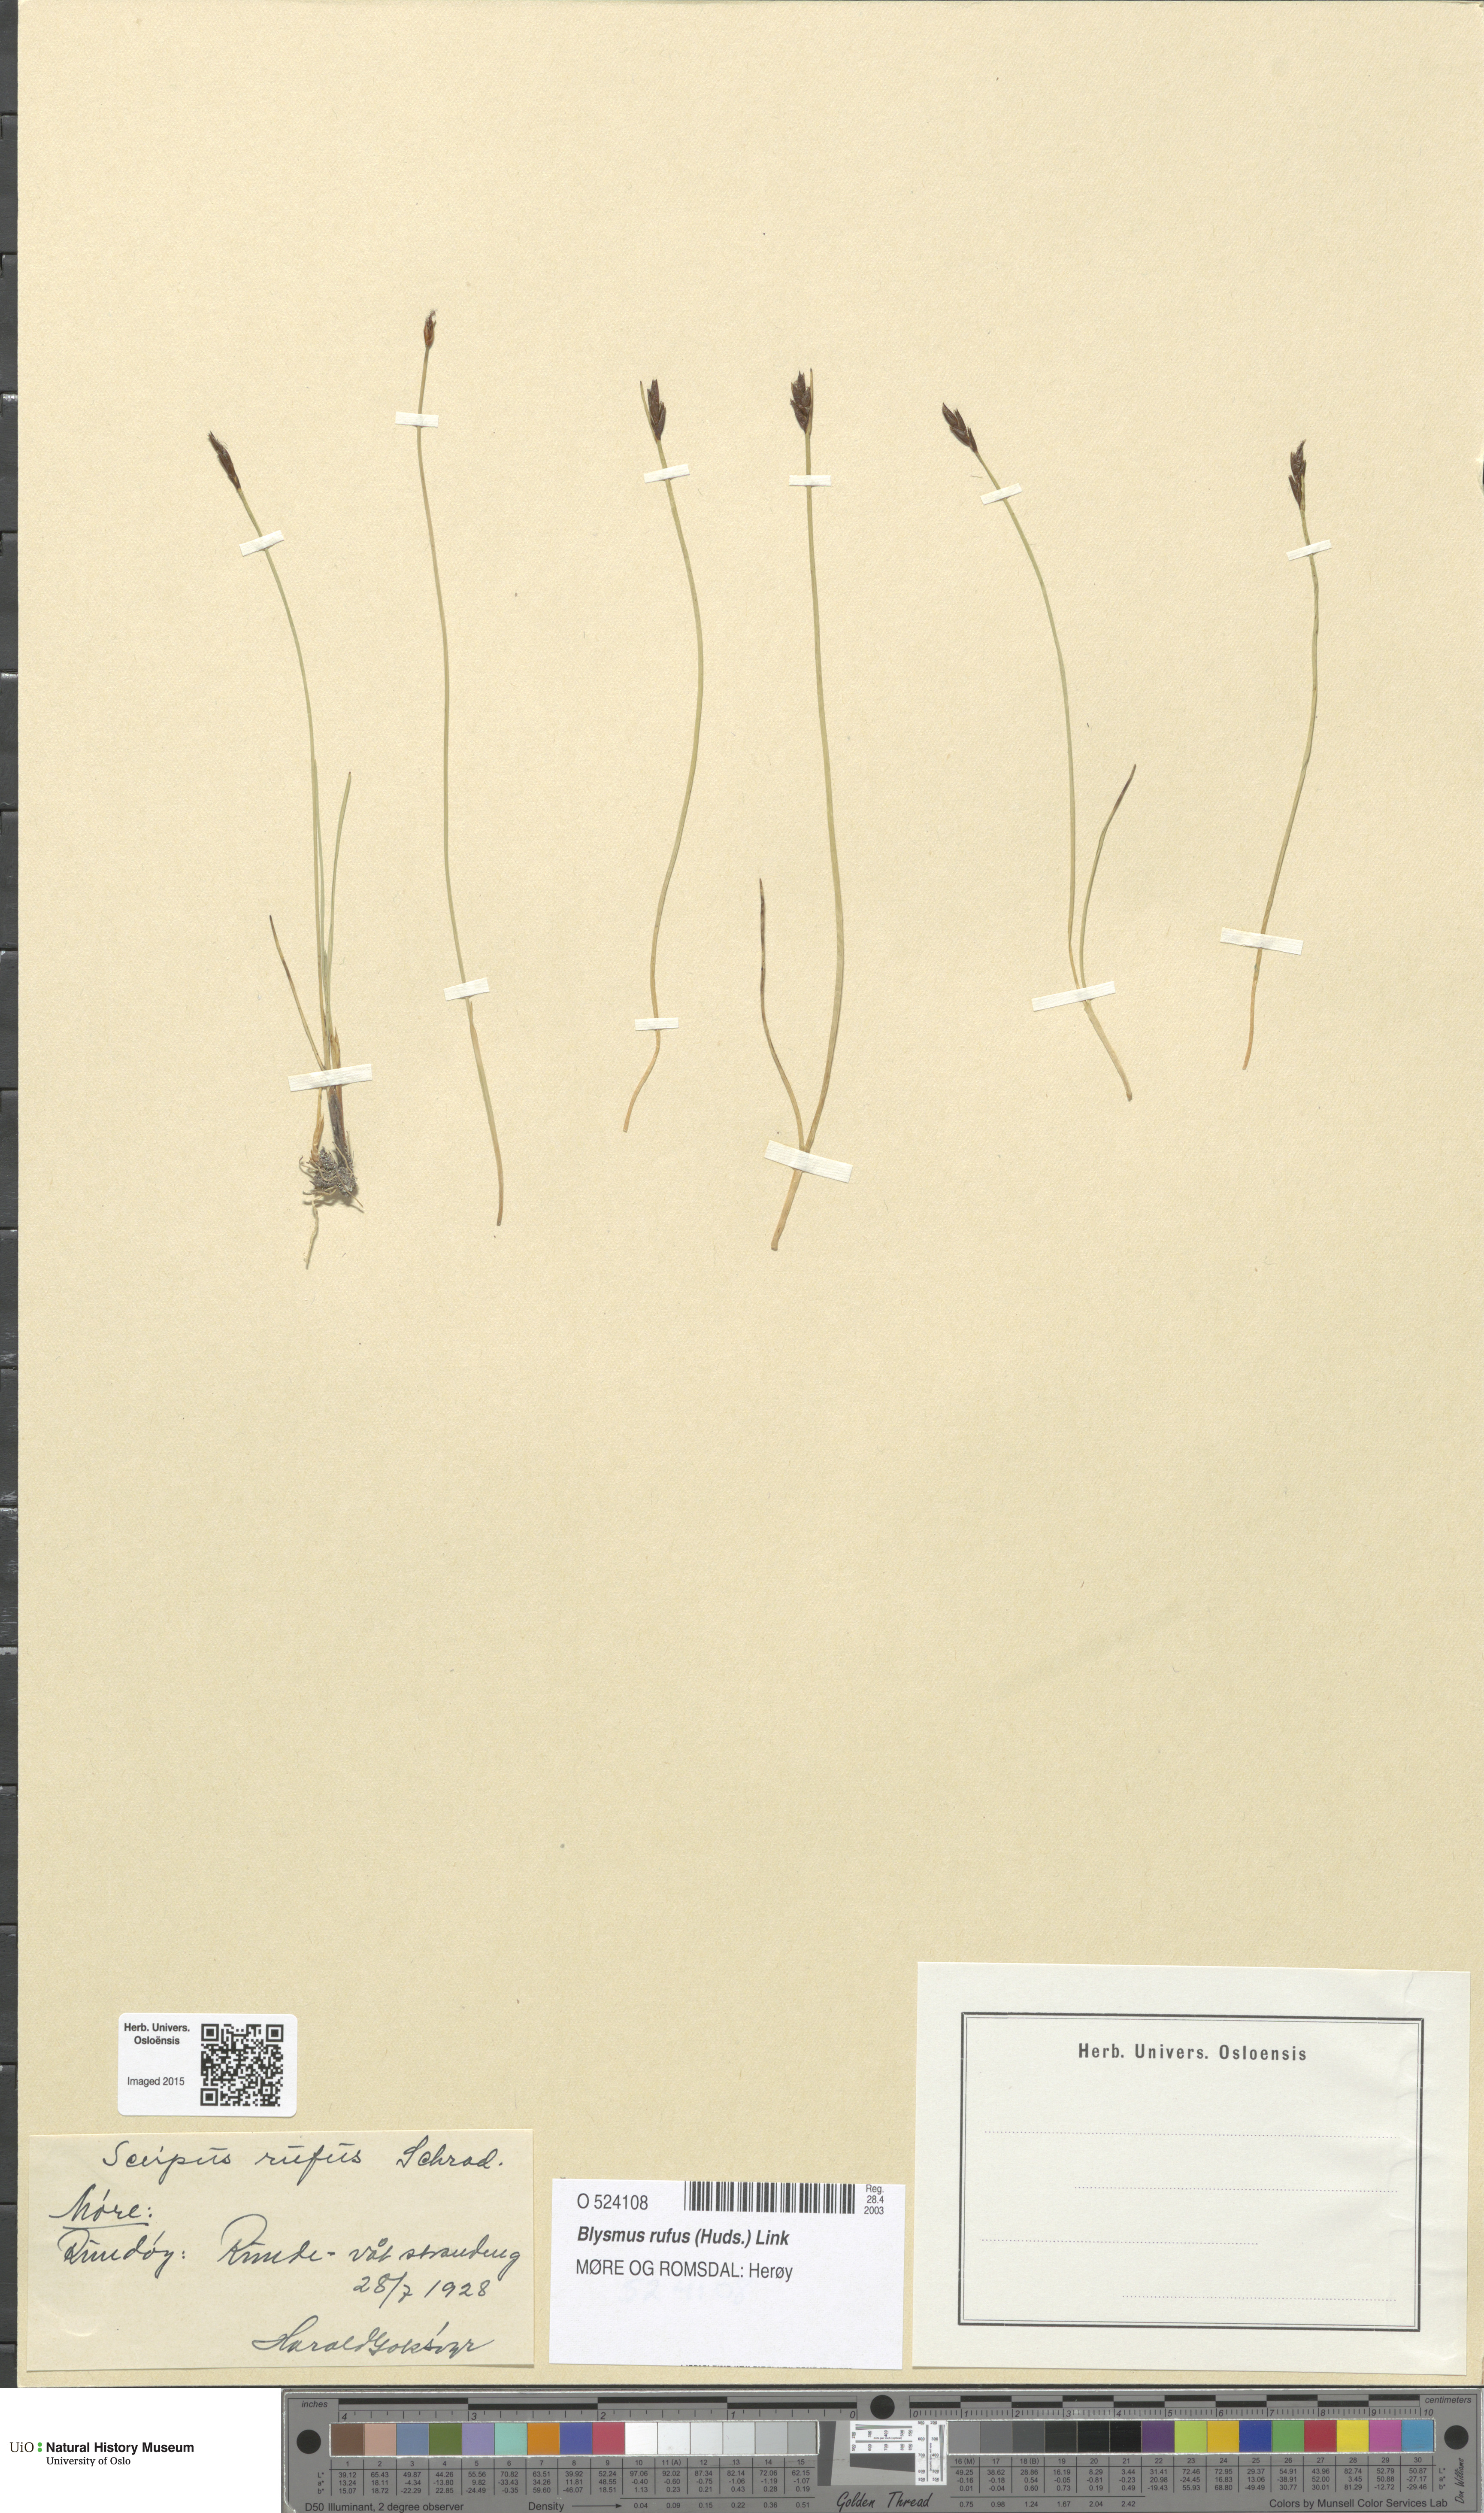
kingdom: Plantae
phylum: Tracheophyta
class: Liliopsida
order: Poales
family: Cyperaceae
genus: Blysmus
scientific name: Blysmus rufus
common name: Saltmarsh flat-sedge
